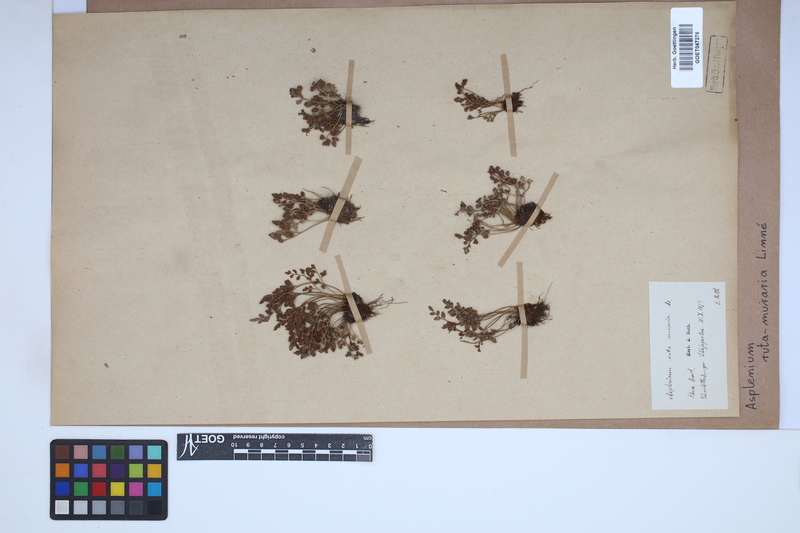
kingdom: Plantae
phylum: Tracheophyta
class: Polypodiopsida
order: Polypodiales
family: Aspleniaceae
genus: Asplenium
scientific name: Asplenium ruta-muraria
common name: Wall-rue
